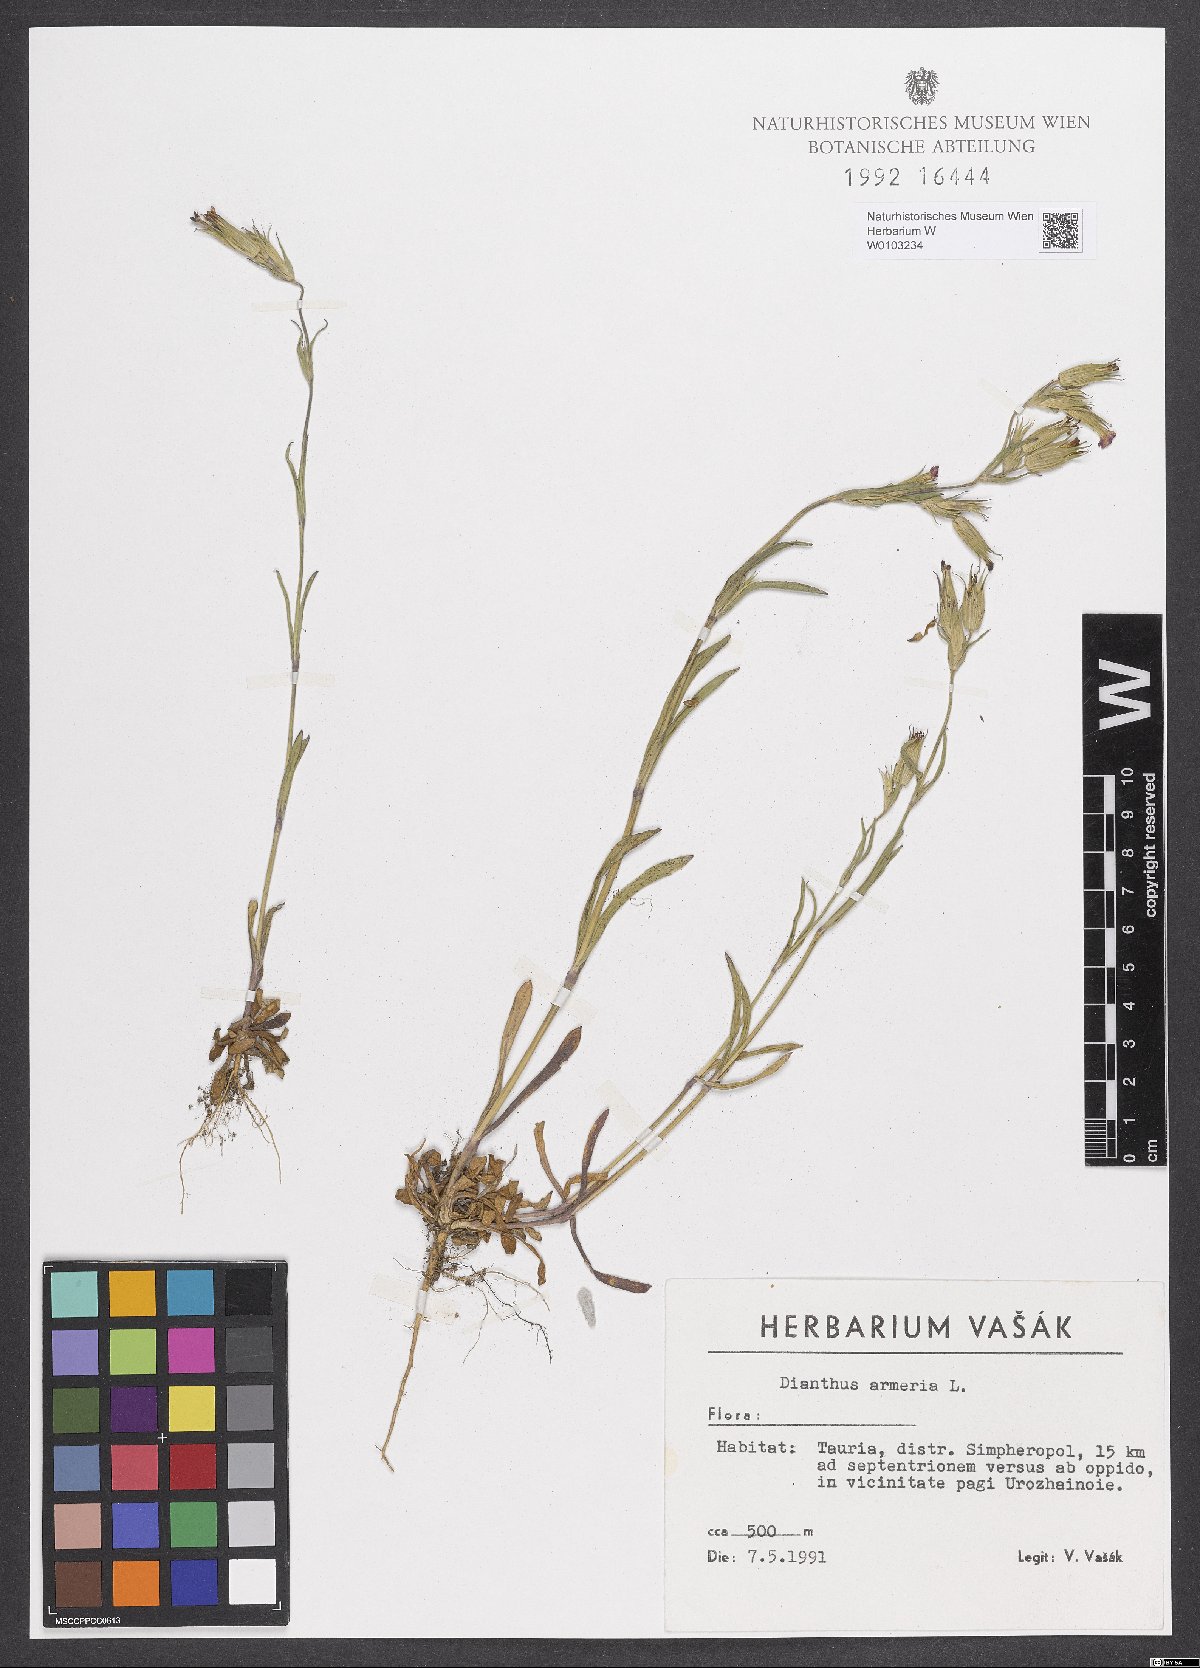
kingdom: Plantae
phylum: Tracheophyta
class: Magnoliopsida
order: Caryophyllales
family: Caryophyllaceae
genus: Dianthus
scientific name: Dianthus armeria
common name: Deptford pink
